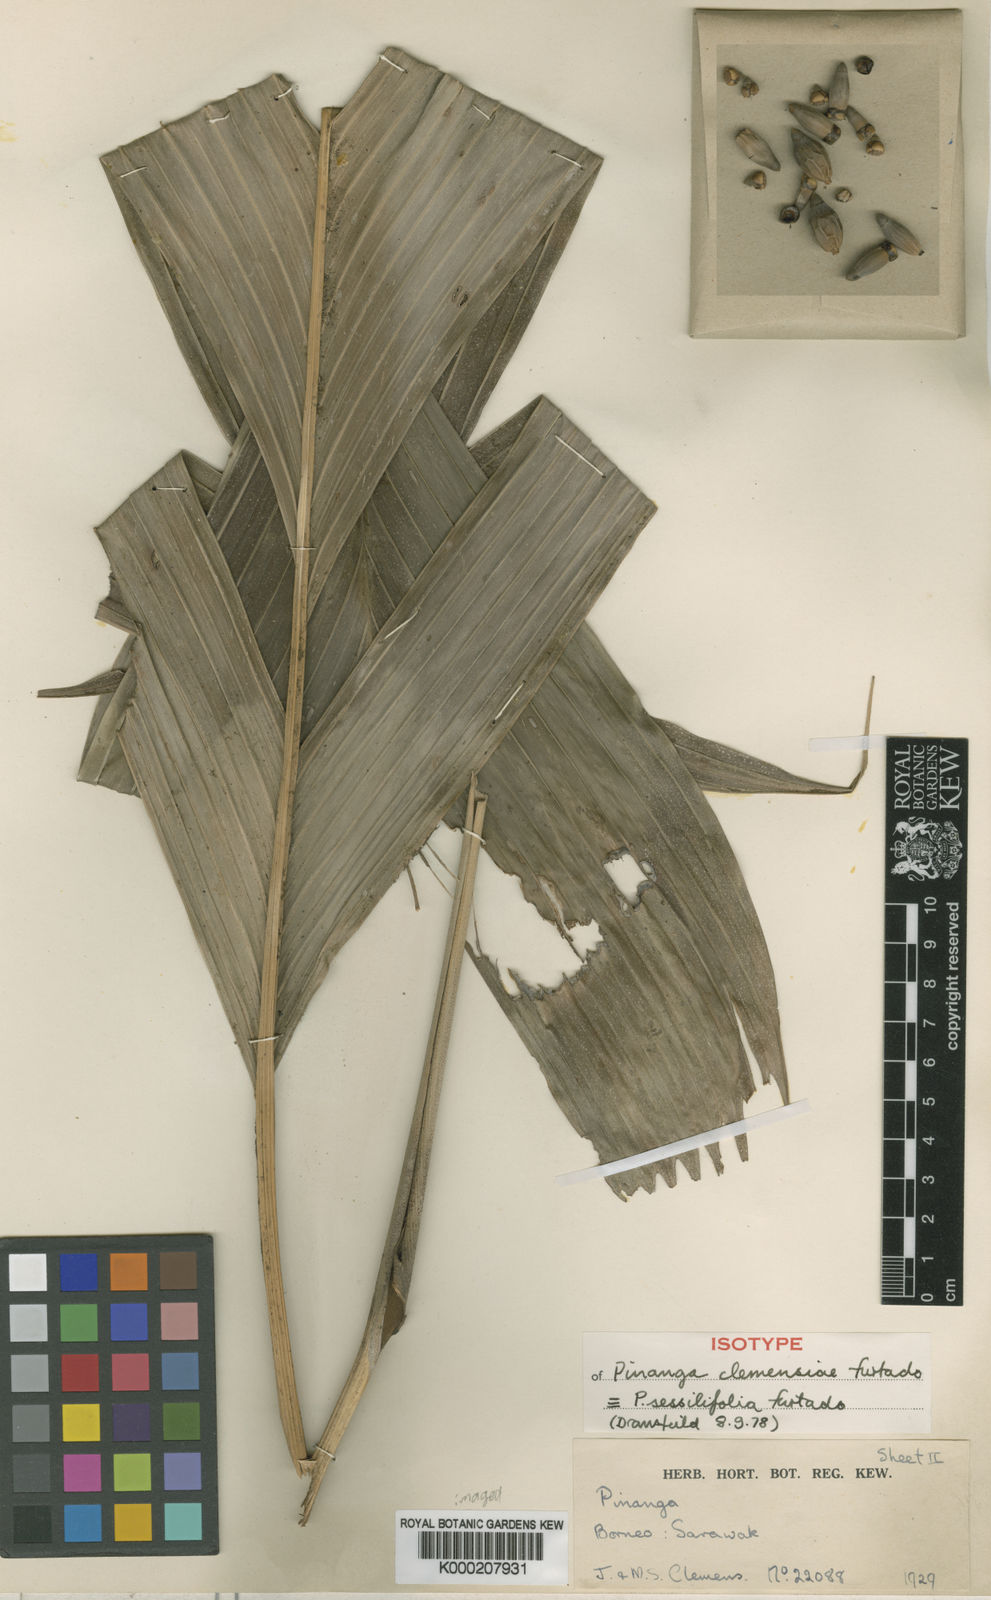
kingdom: Plantae
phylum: Tracheophyta
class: Liliopsida
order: Arecales
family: Arecaceae
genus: Pinanga
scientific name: Pinanga sessilifolia
